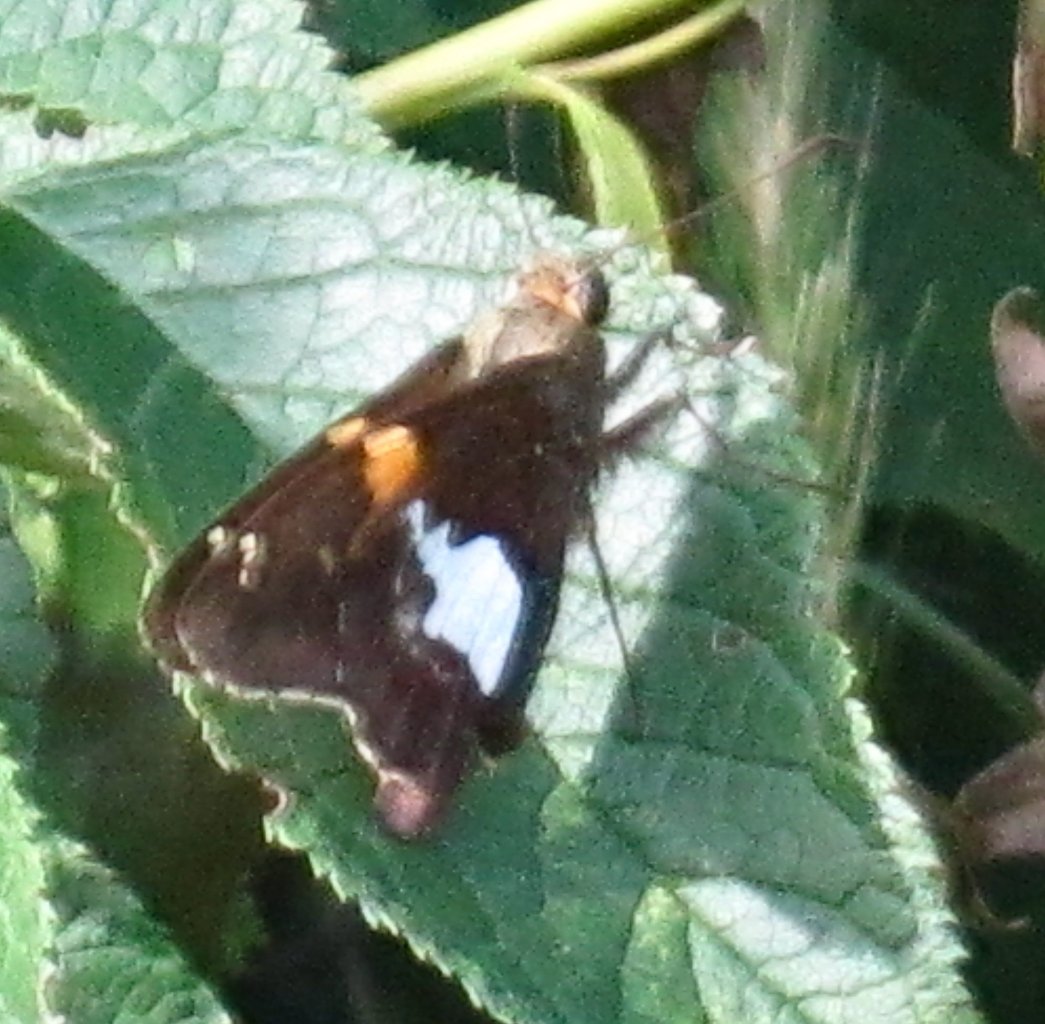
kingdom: Animalia
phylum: Arthropoda
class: Insecta
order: Lepidoptera
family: Hesperiidae
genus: Epargyreus
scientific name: Epargyreus clarus
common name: Silver-spotted Skipper
